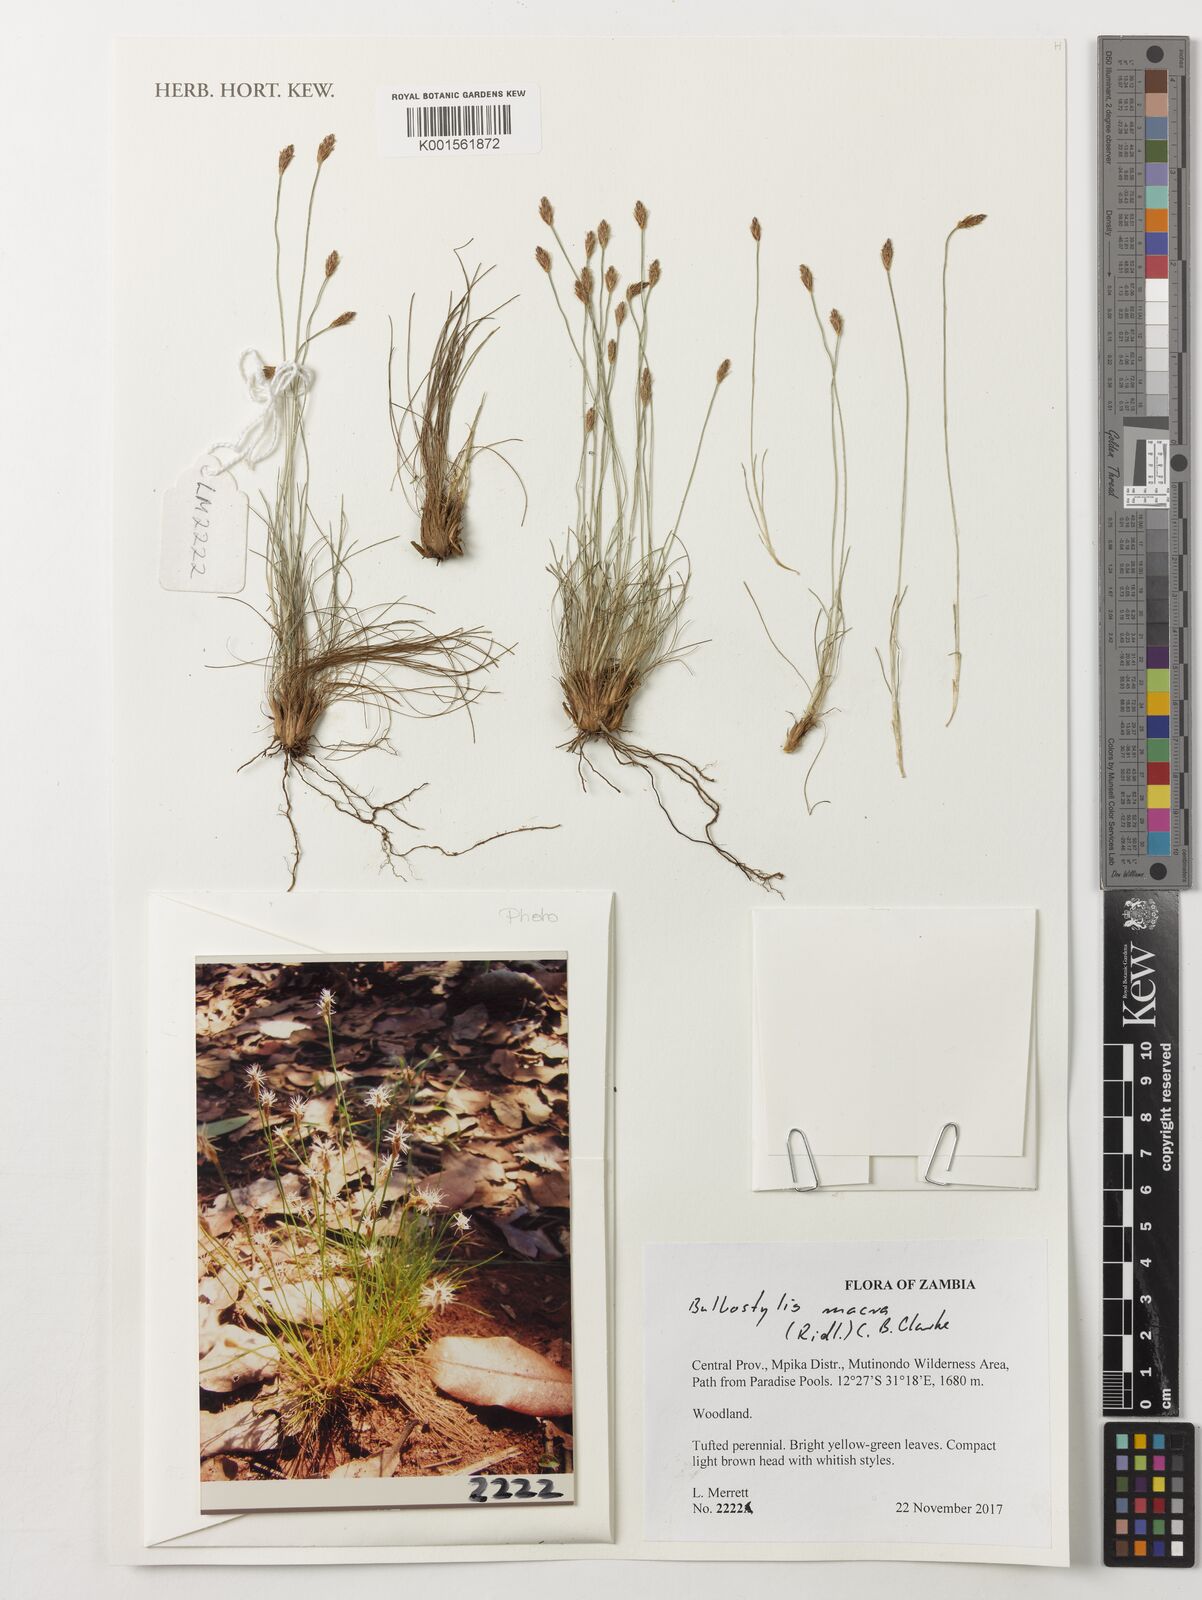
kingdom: Plantae
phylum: Tracheophyta
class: Liliopsida
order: Poales
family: Cyperaceae
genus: Bulbostylis
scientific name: Bulbostylis macra
